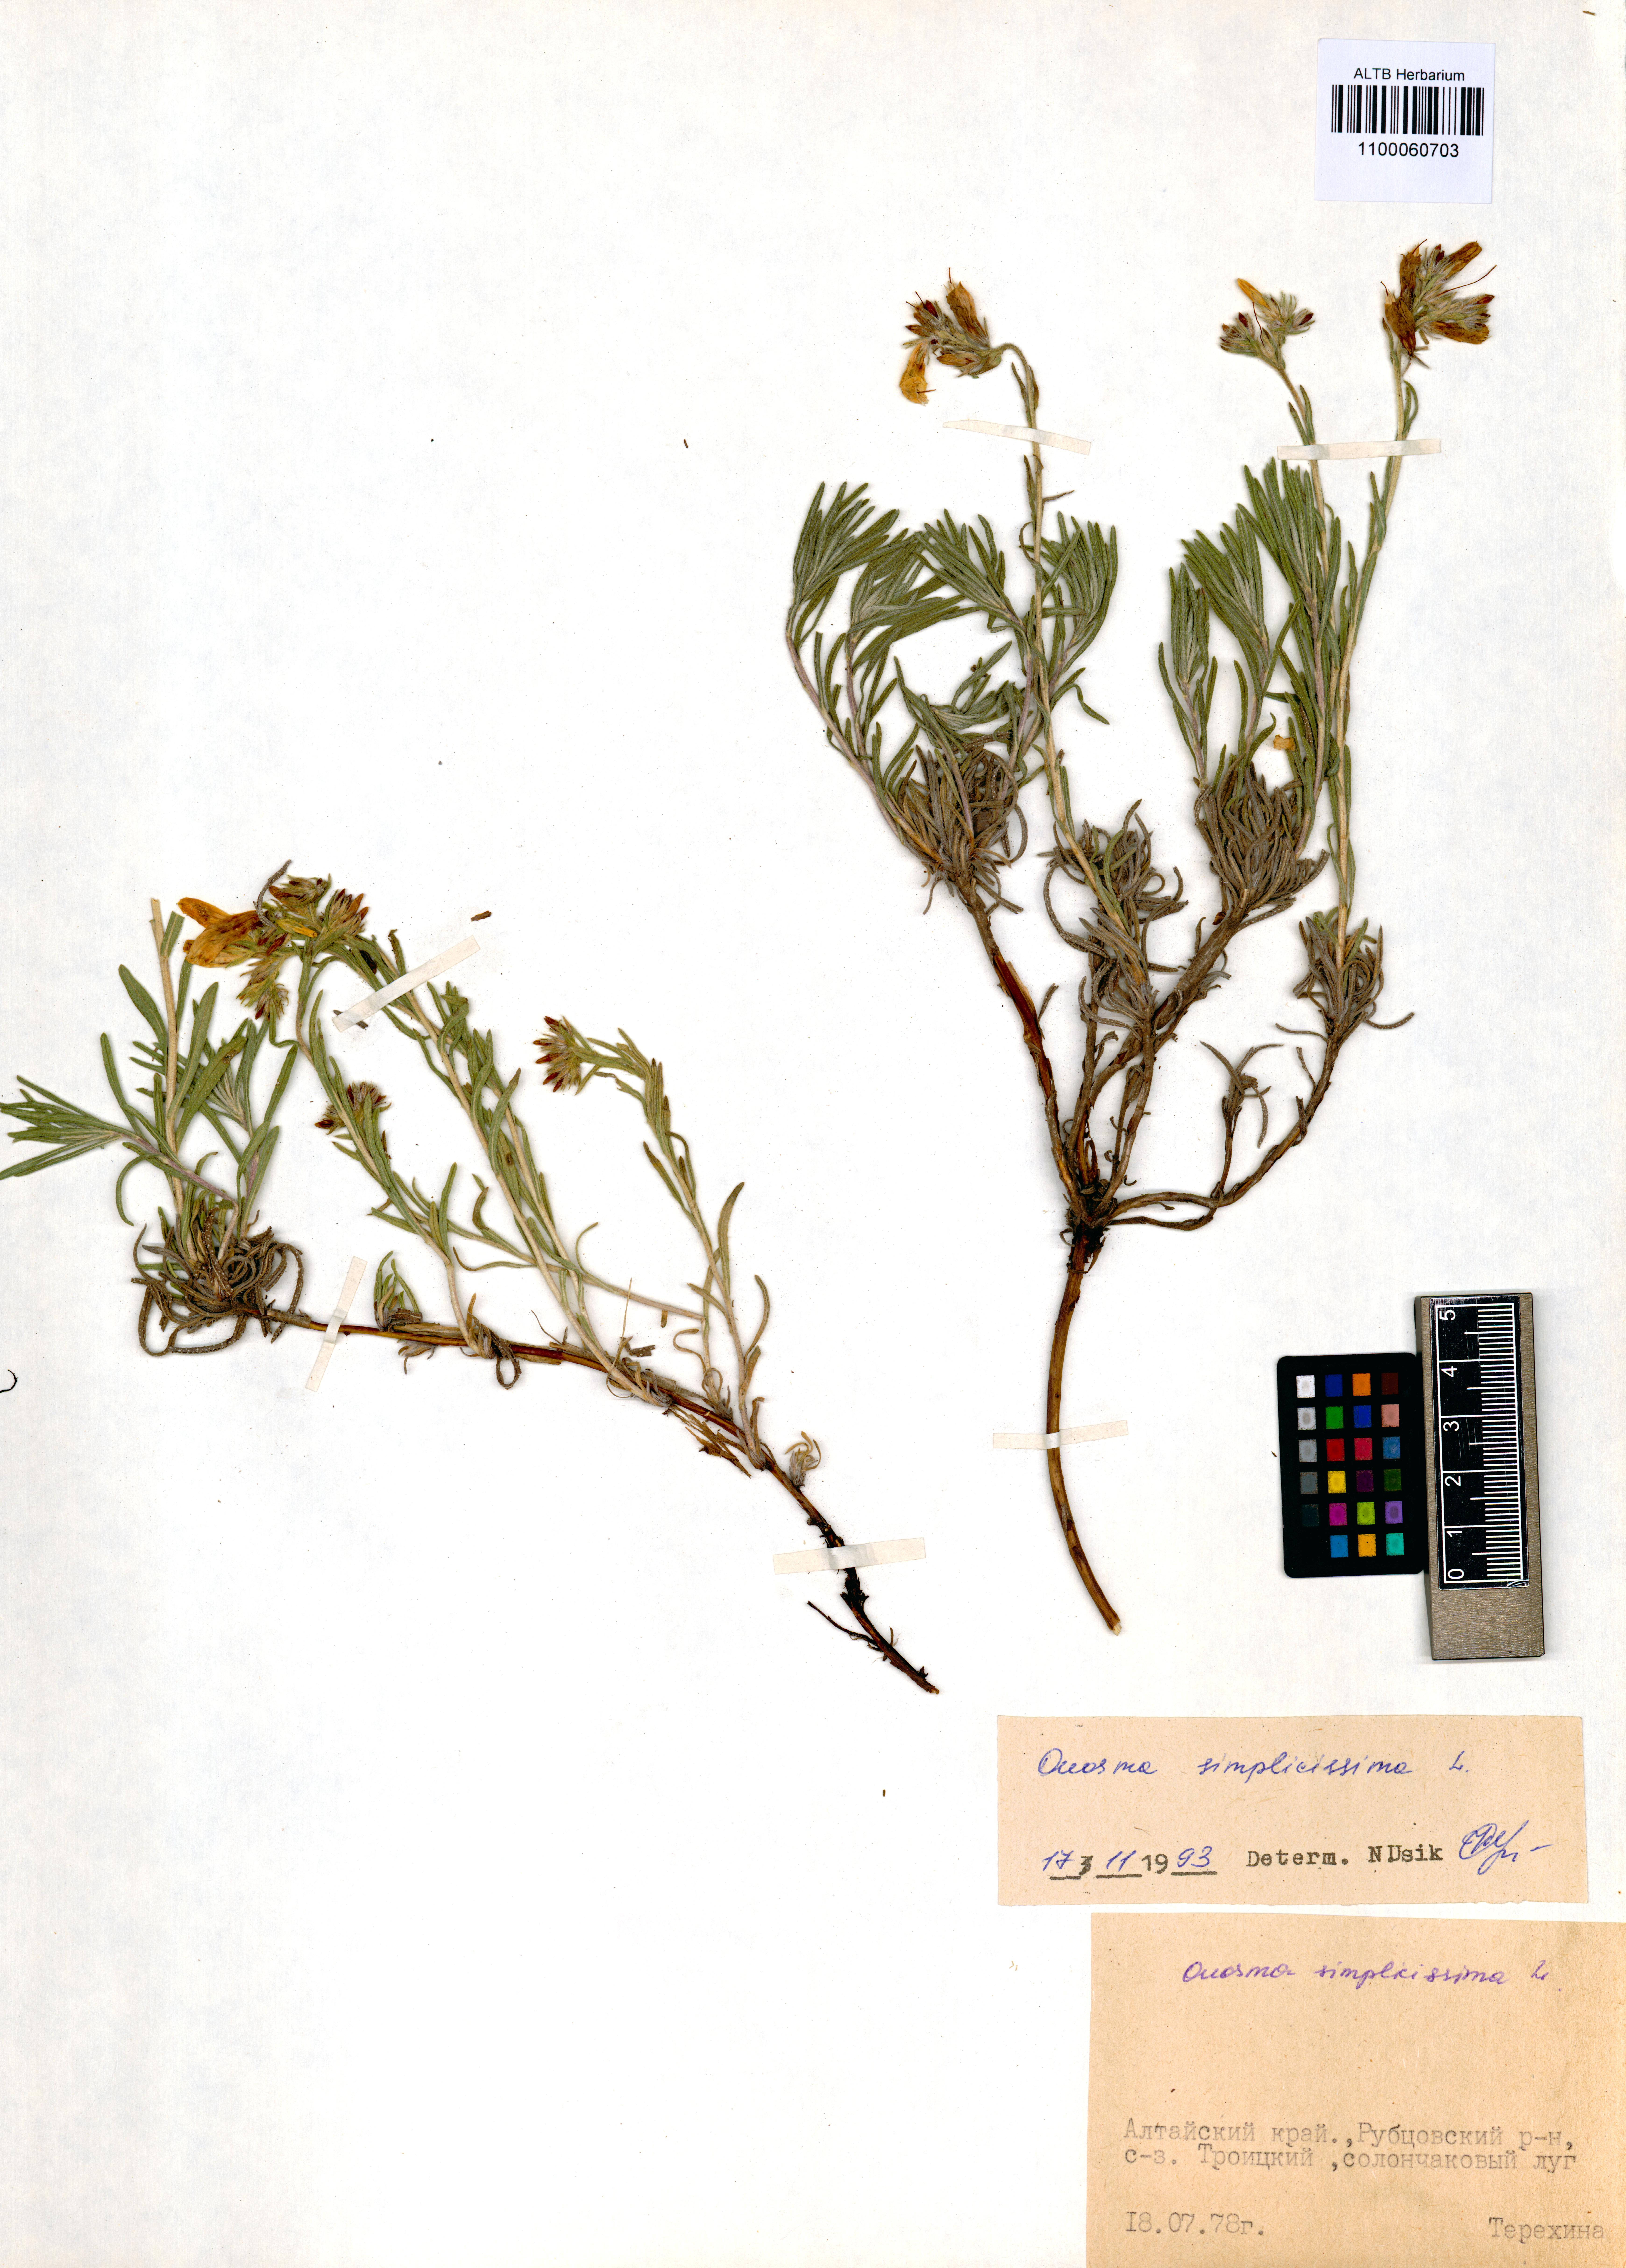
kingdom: Plantae
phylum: Tracheophyta
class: Magnoliopsida
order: Boraginales
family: Boraginaceae
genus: Onosma
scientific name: Onosma simplicissima
